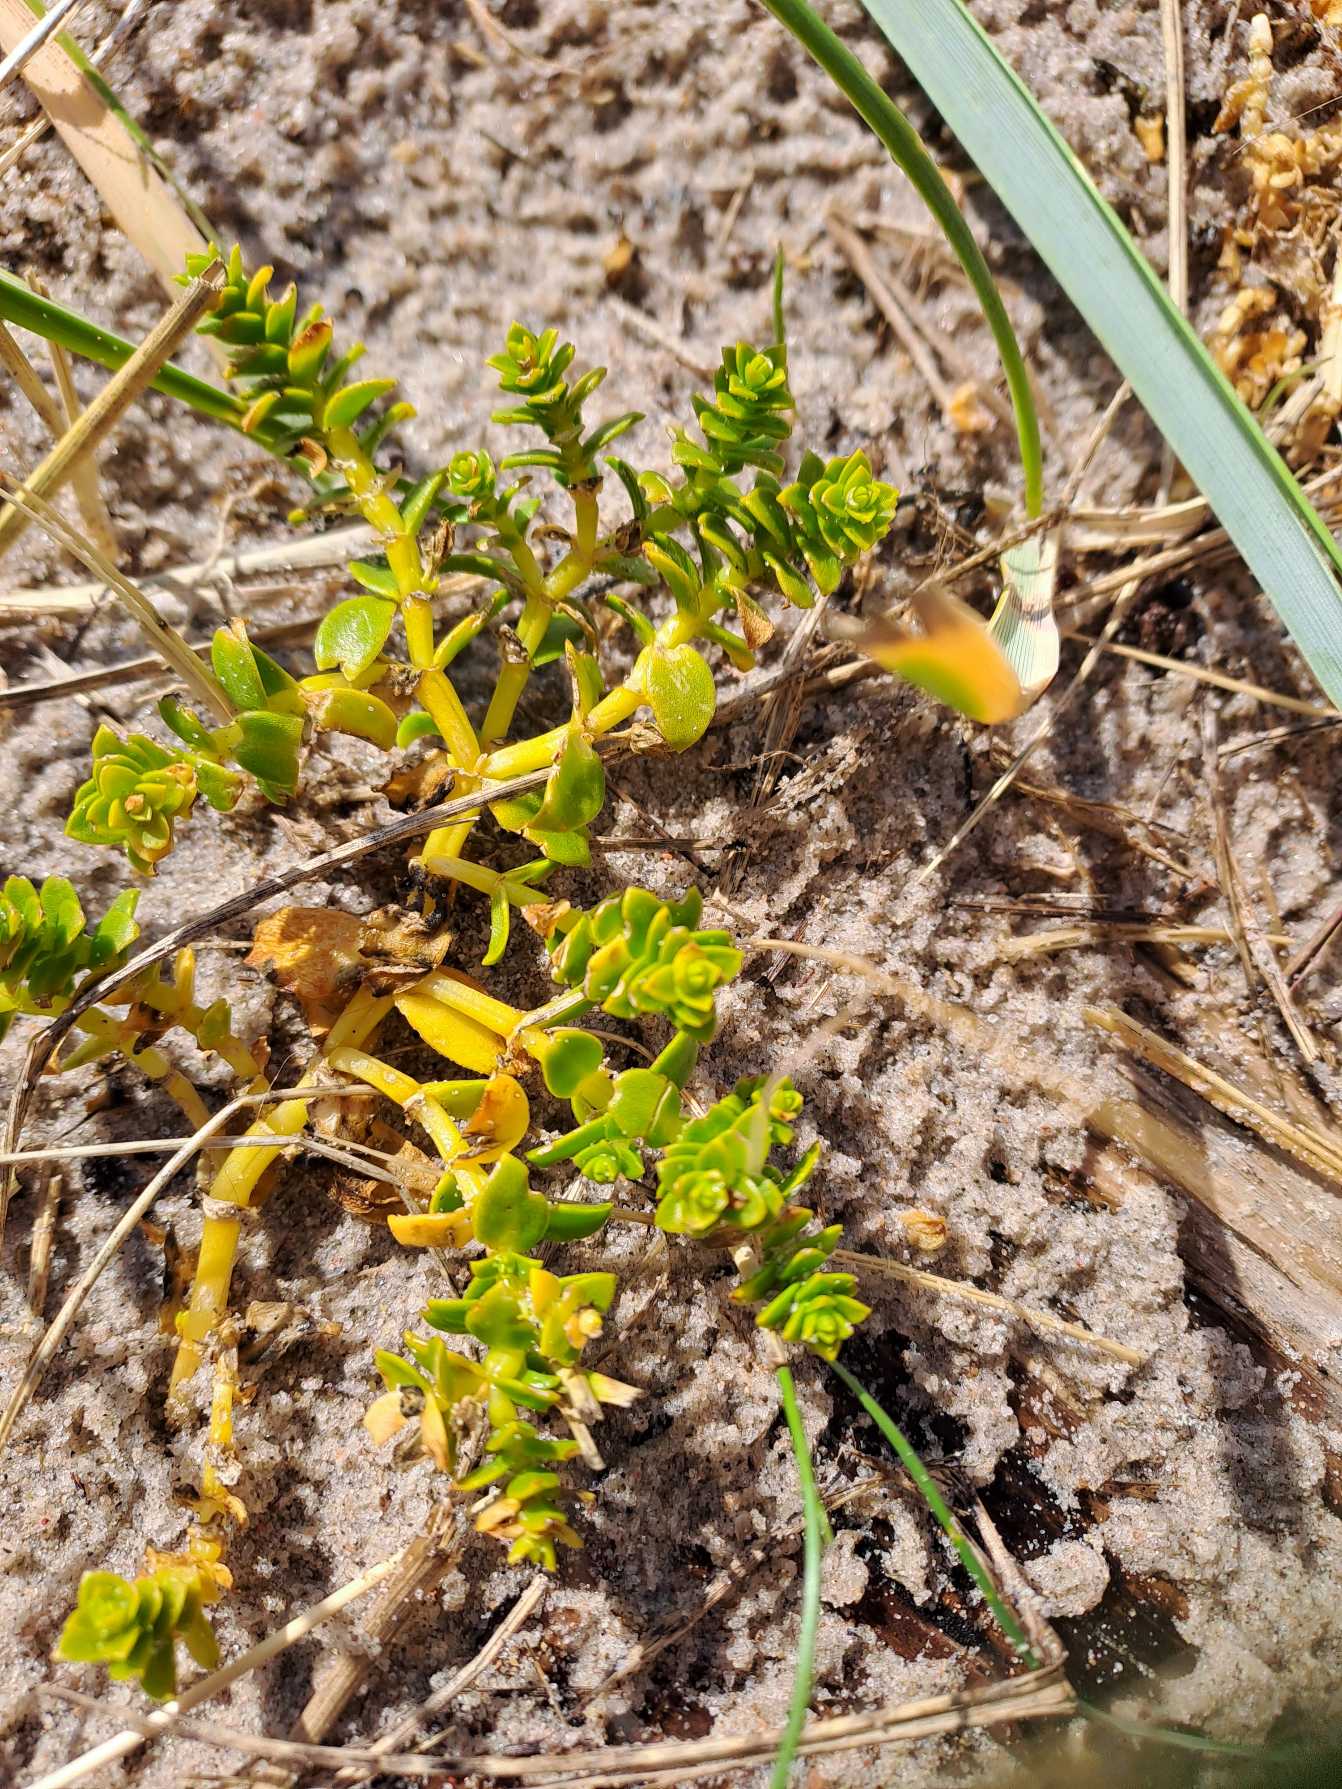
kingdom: Plantae
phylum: Tracheophyta
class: Magnoliopsida
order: Caryophyllales
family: Caryophyllaceae
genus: Honckenya
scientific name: Honckenya peploides
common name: Strandarve
